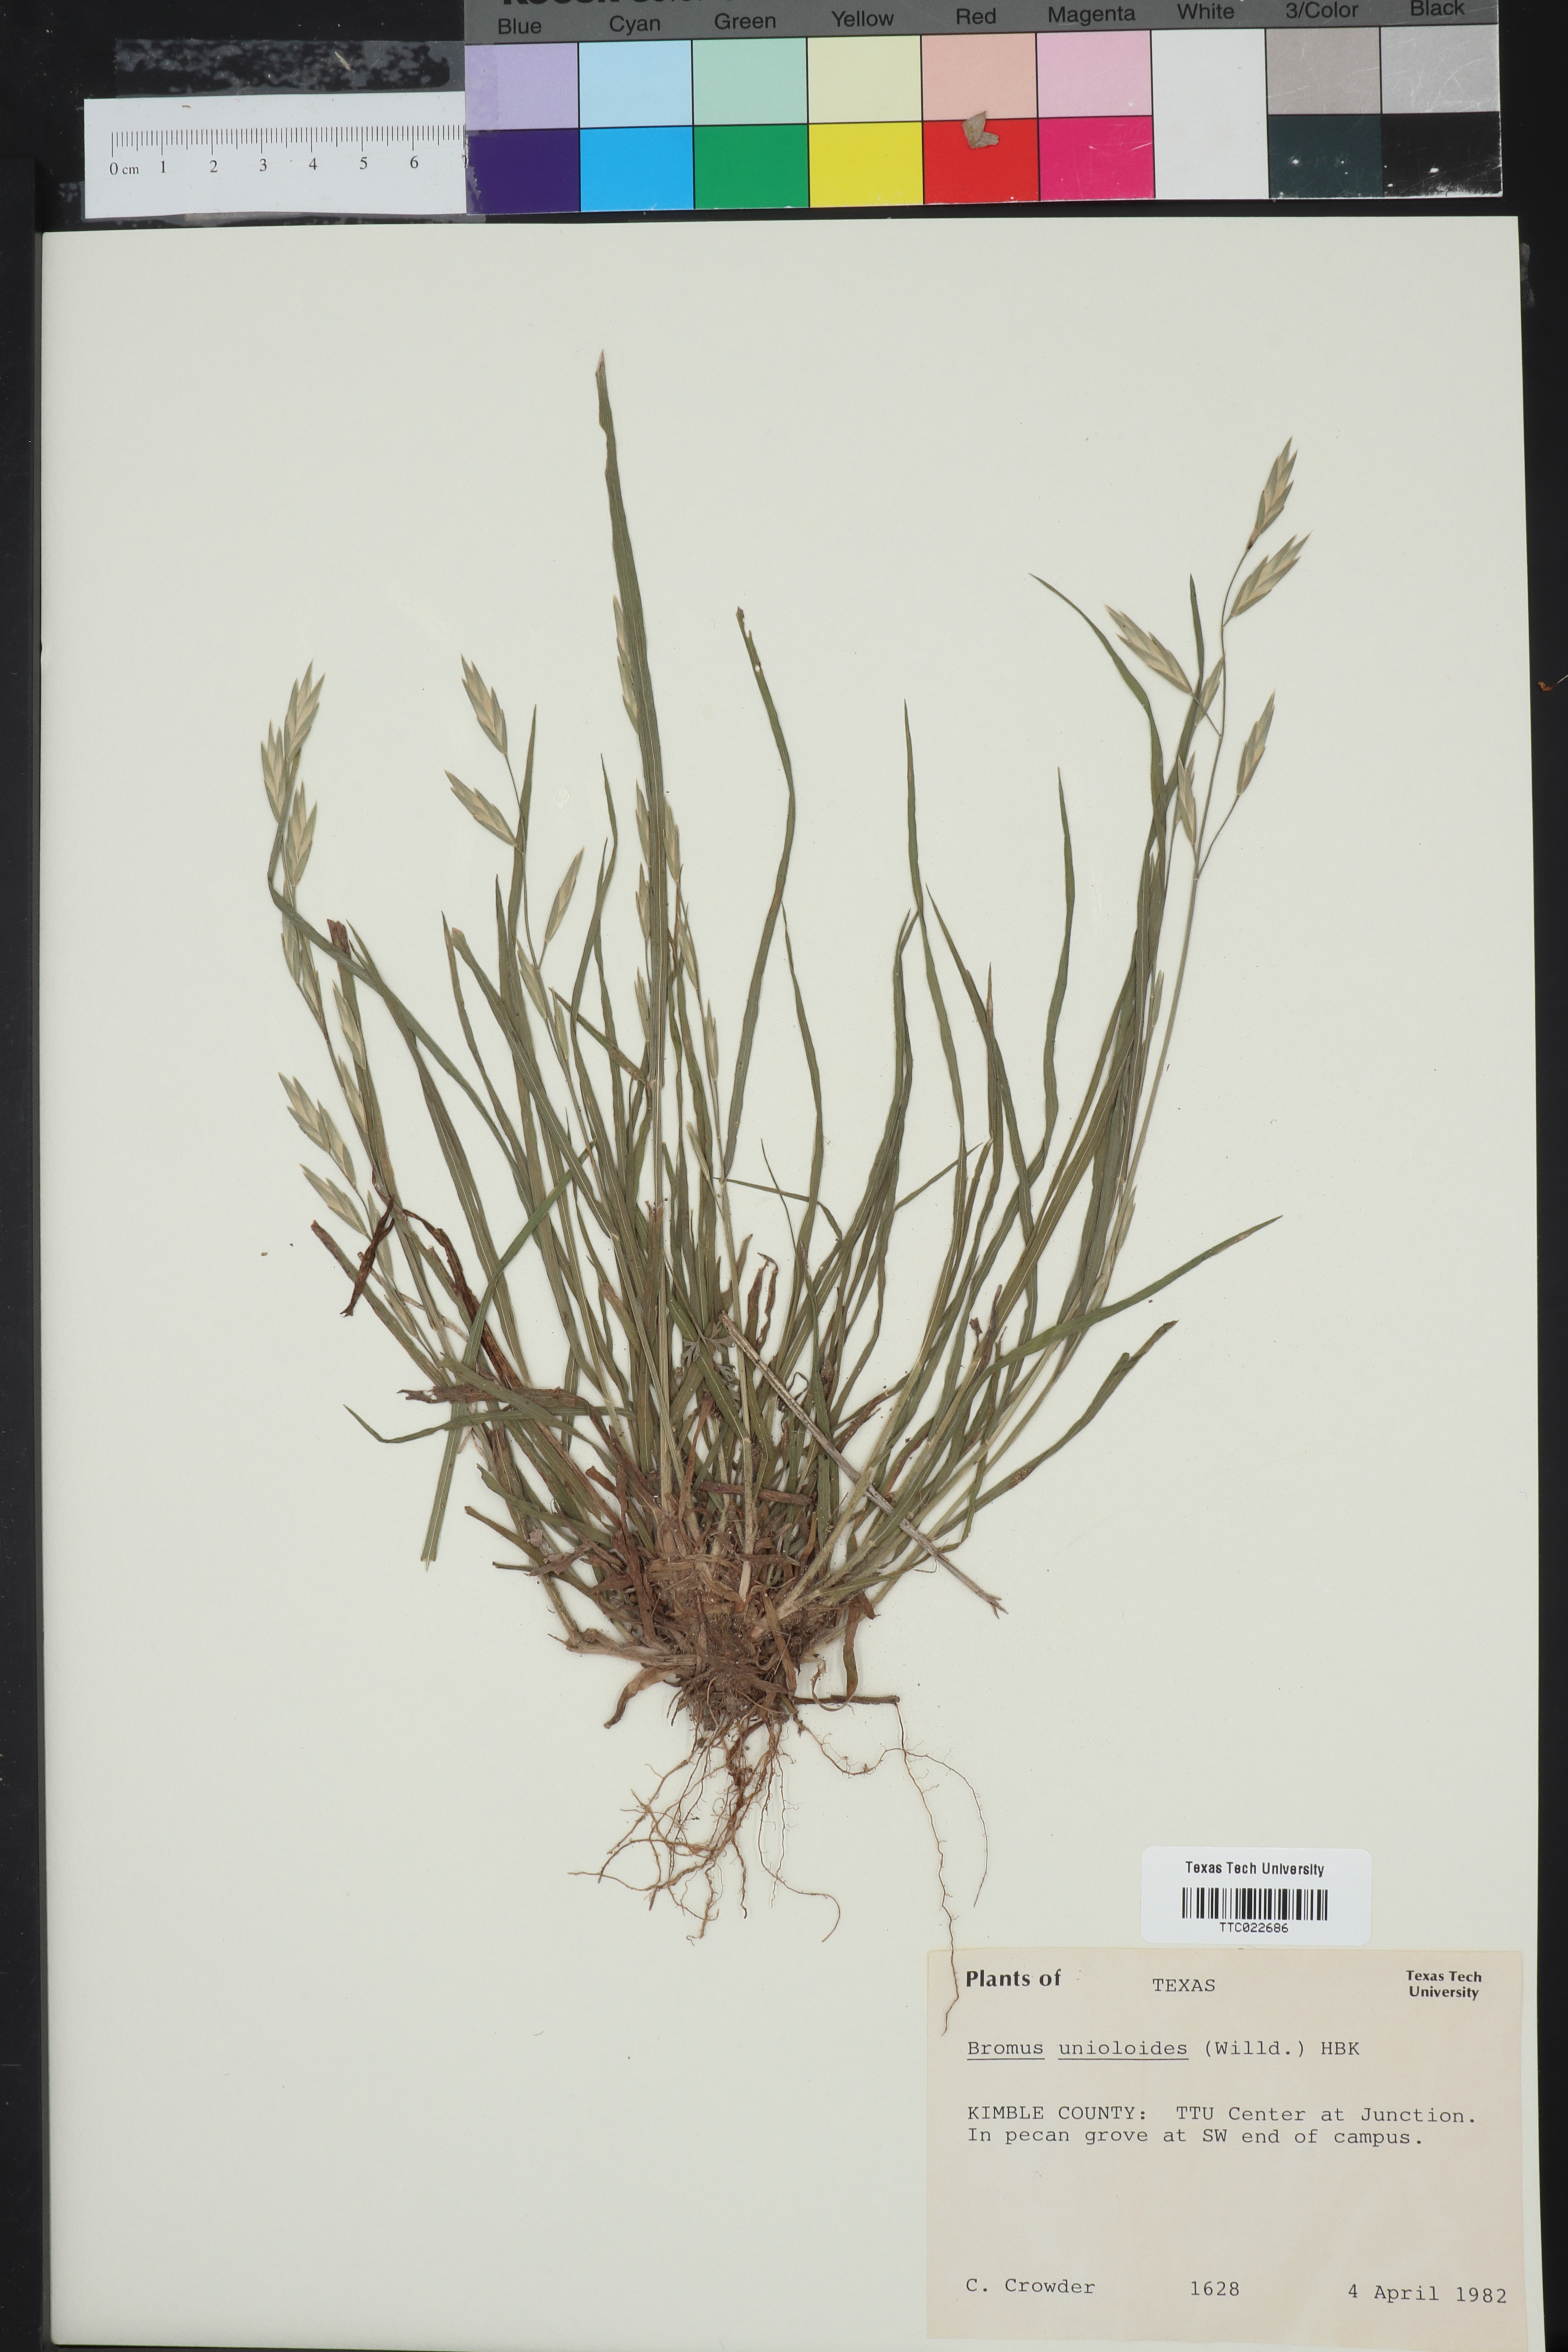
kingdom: Plantae
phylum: Tracheophyta
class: Liliopsida
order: Poales
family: Poaceae
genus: Bromus
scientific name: Bromus catharticus
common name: Rescuegrass
